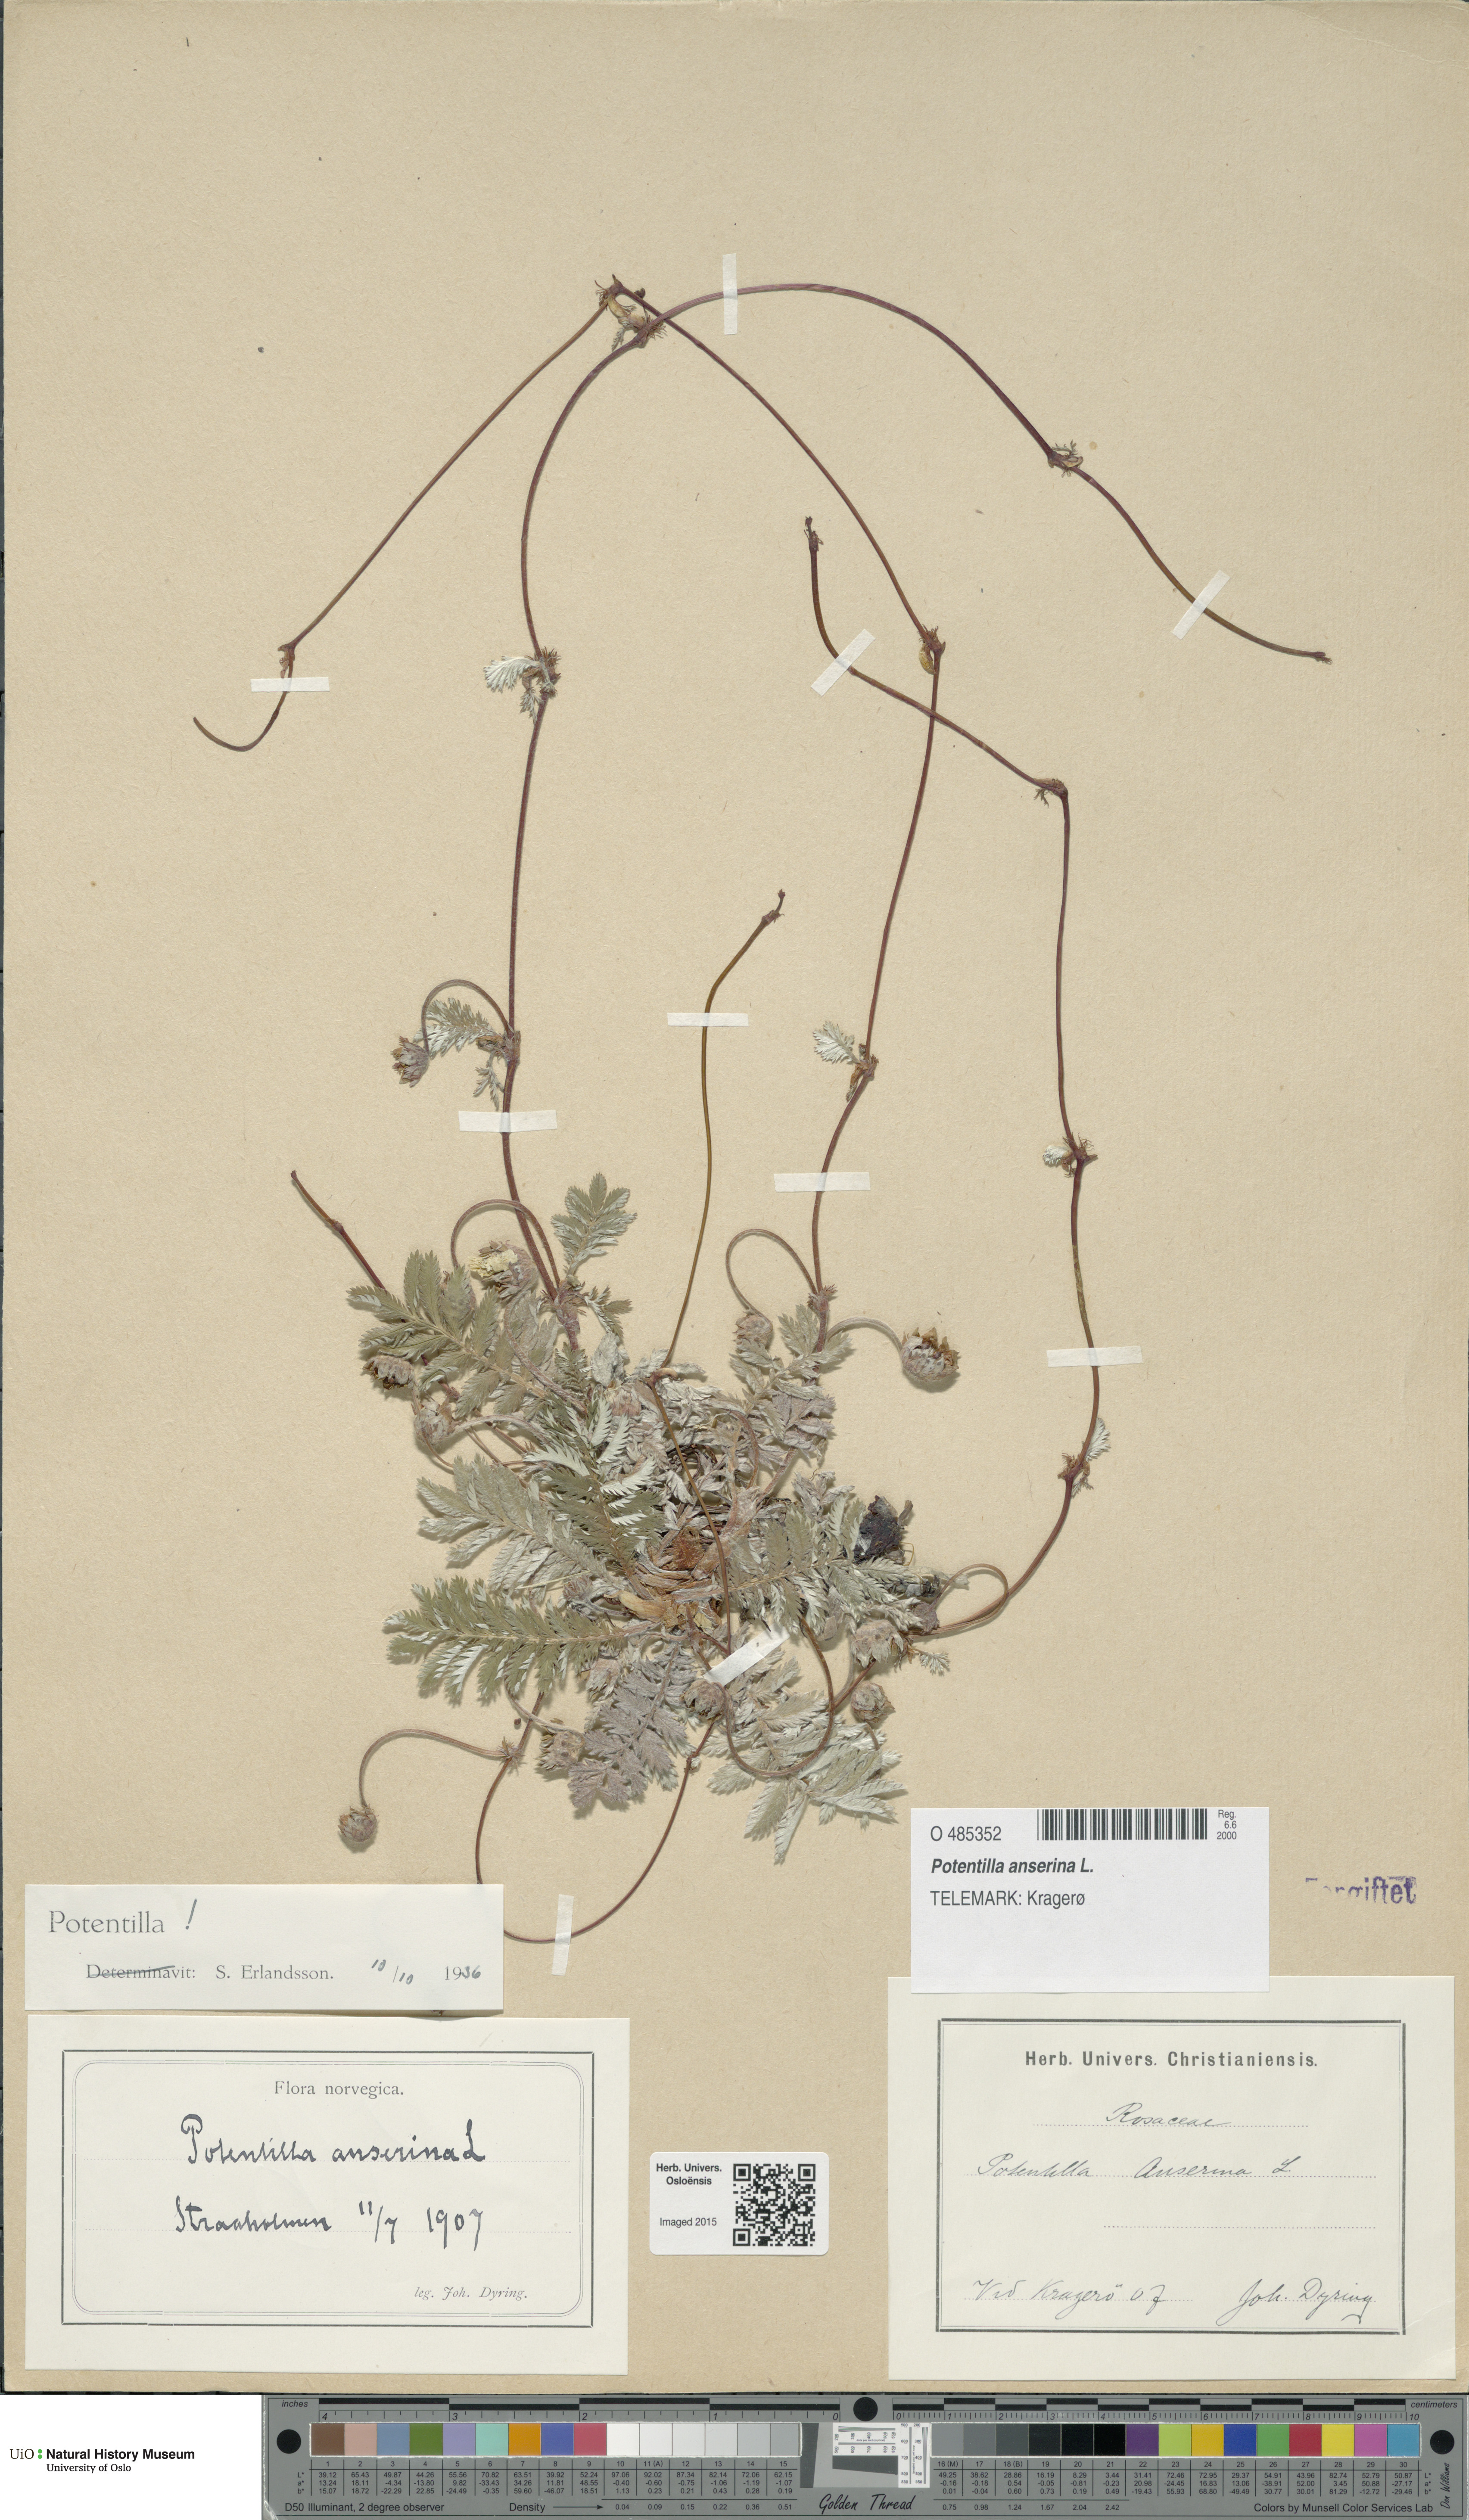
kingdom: Plantae
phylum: Tracheophyta
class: Magnoliopsida
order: Rosales
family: Rosaceae
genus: Argentina
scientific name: Argentina anserina
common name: Common silverweed
